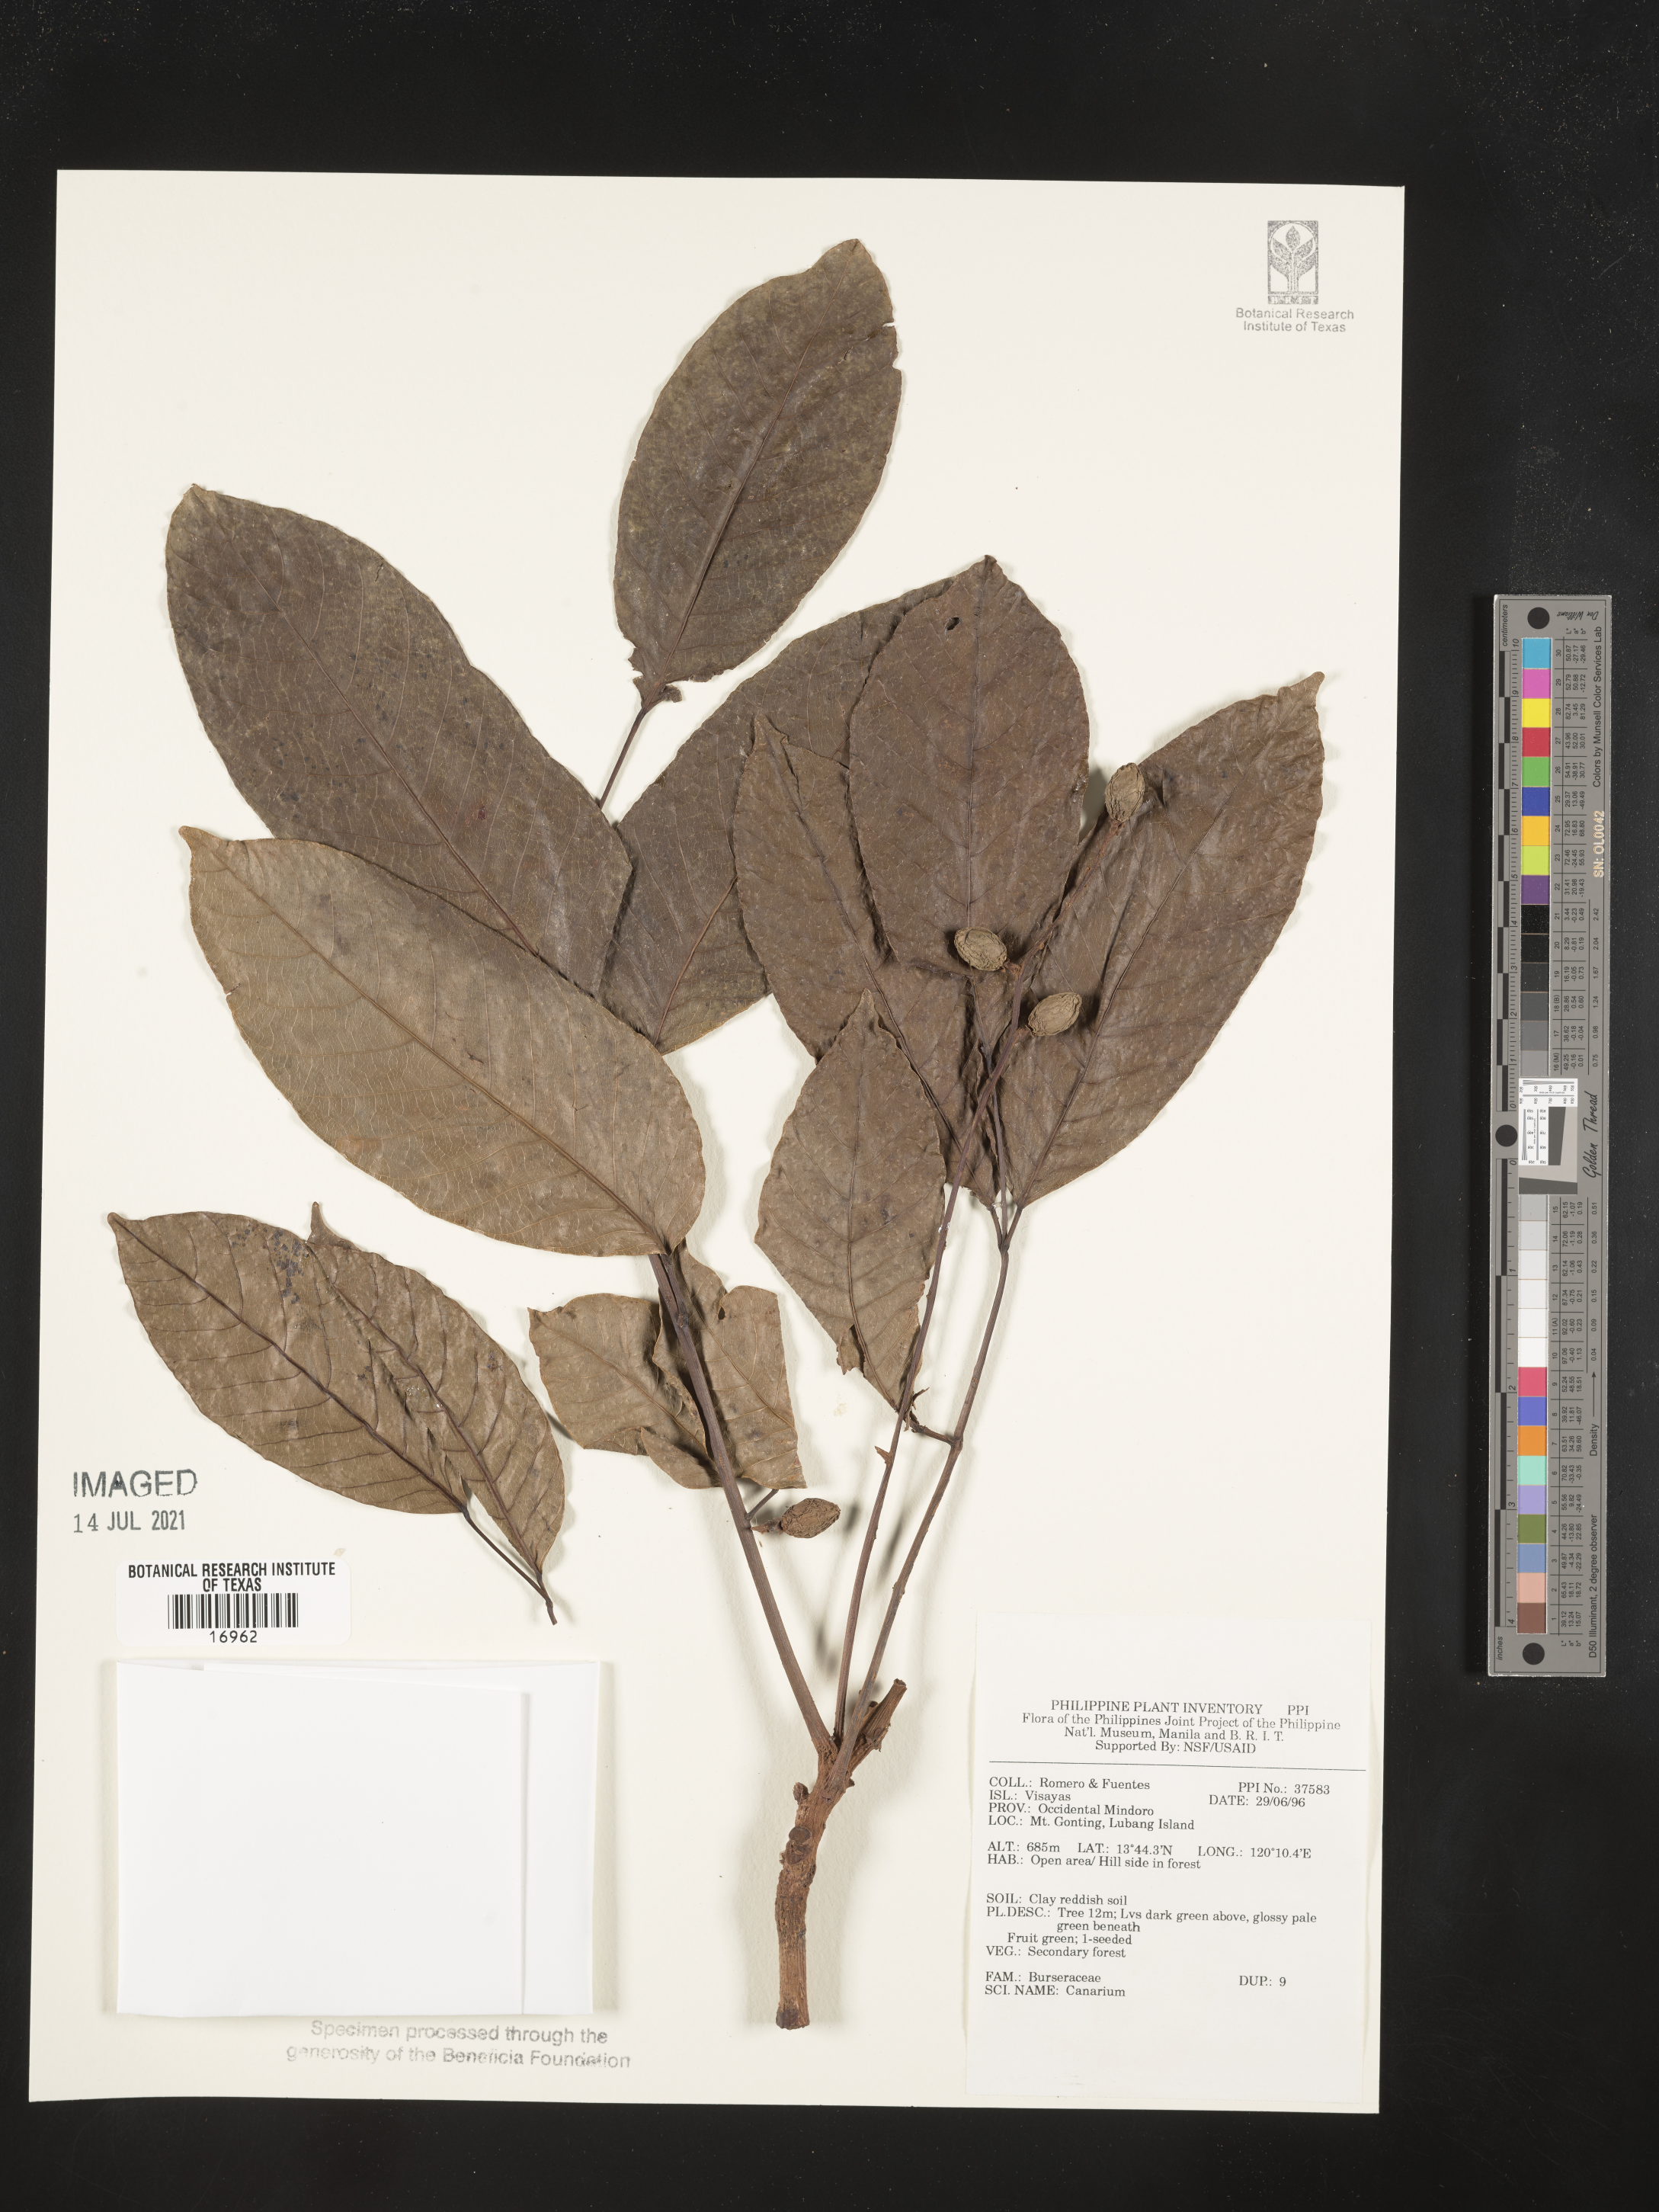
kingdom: Plantae
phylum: Tracheophyta
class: Magnoliopsida
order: Sapindales
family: Burseraceae
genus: Canarium
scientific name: Canarium
